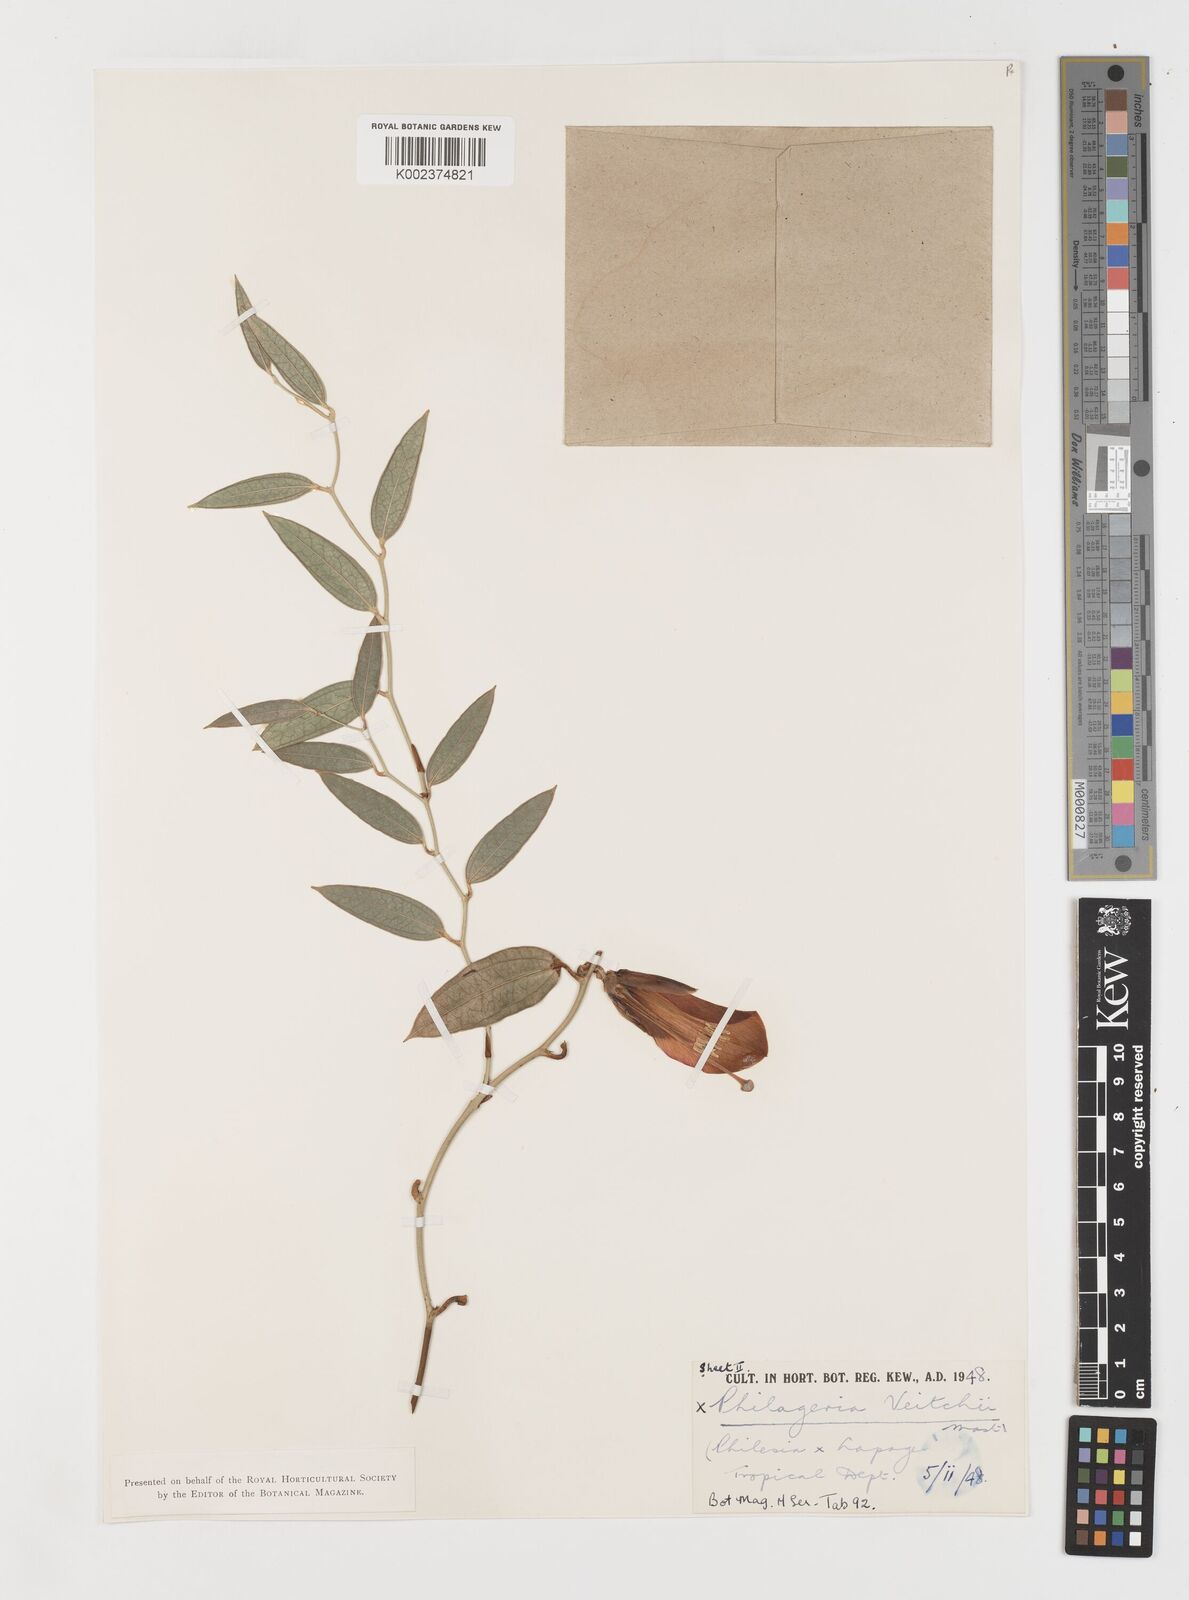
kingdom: Plantae
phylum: Tracheophyta
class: Liliopsida
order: Liliales
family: Philesiaceae
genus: Philageria
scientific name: Philageria veitchii
